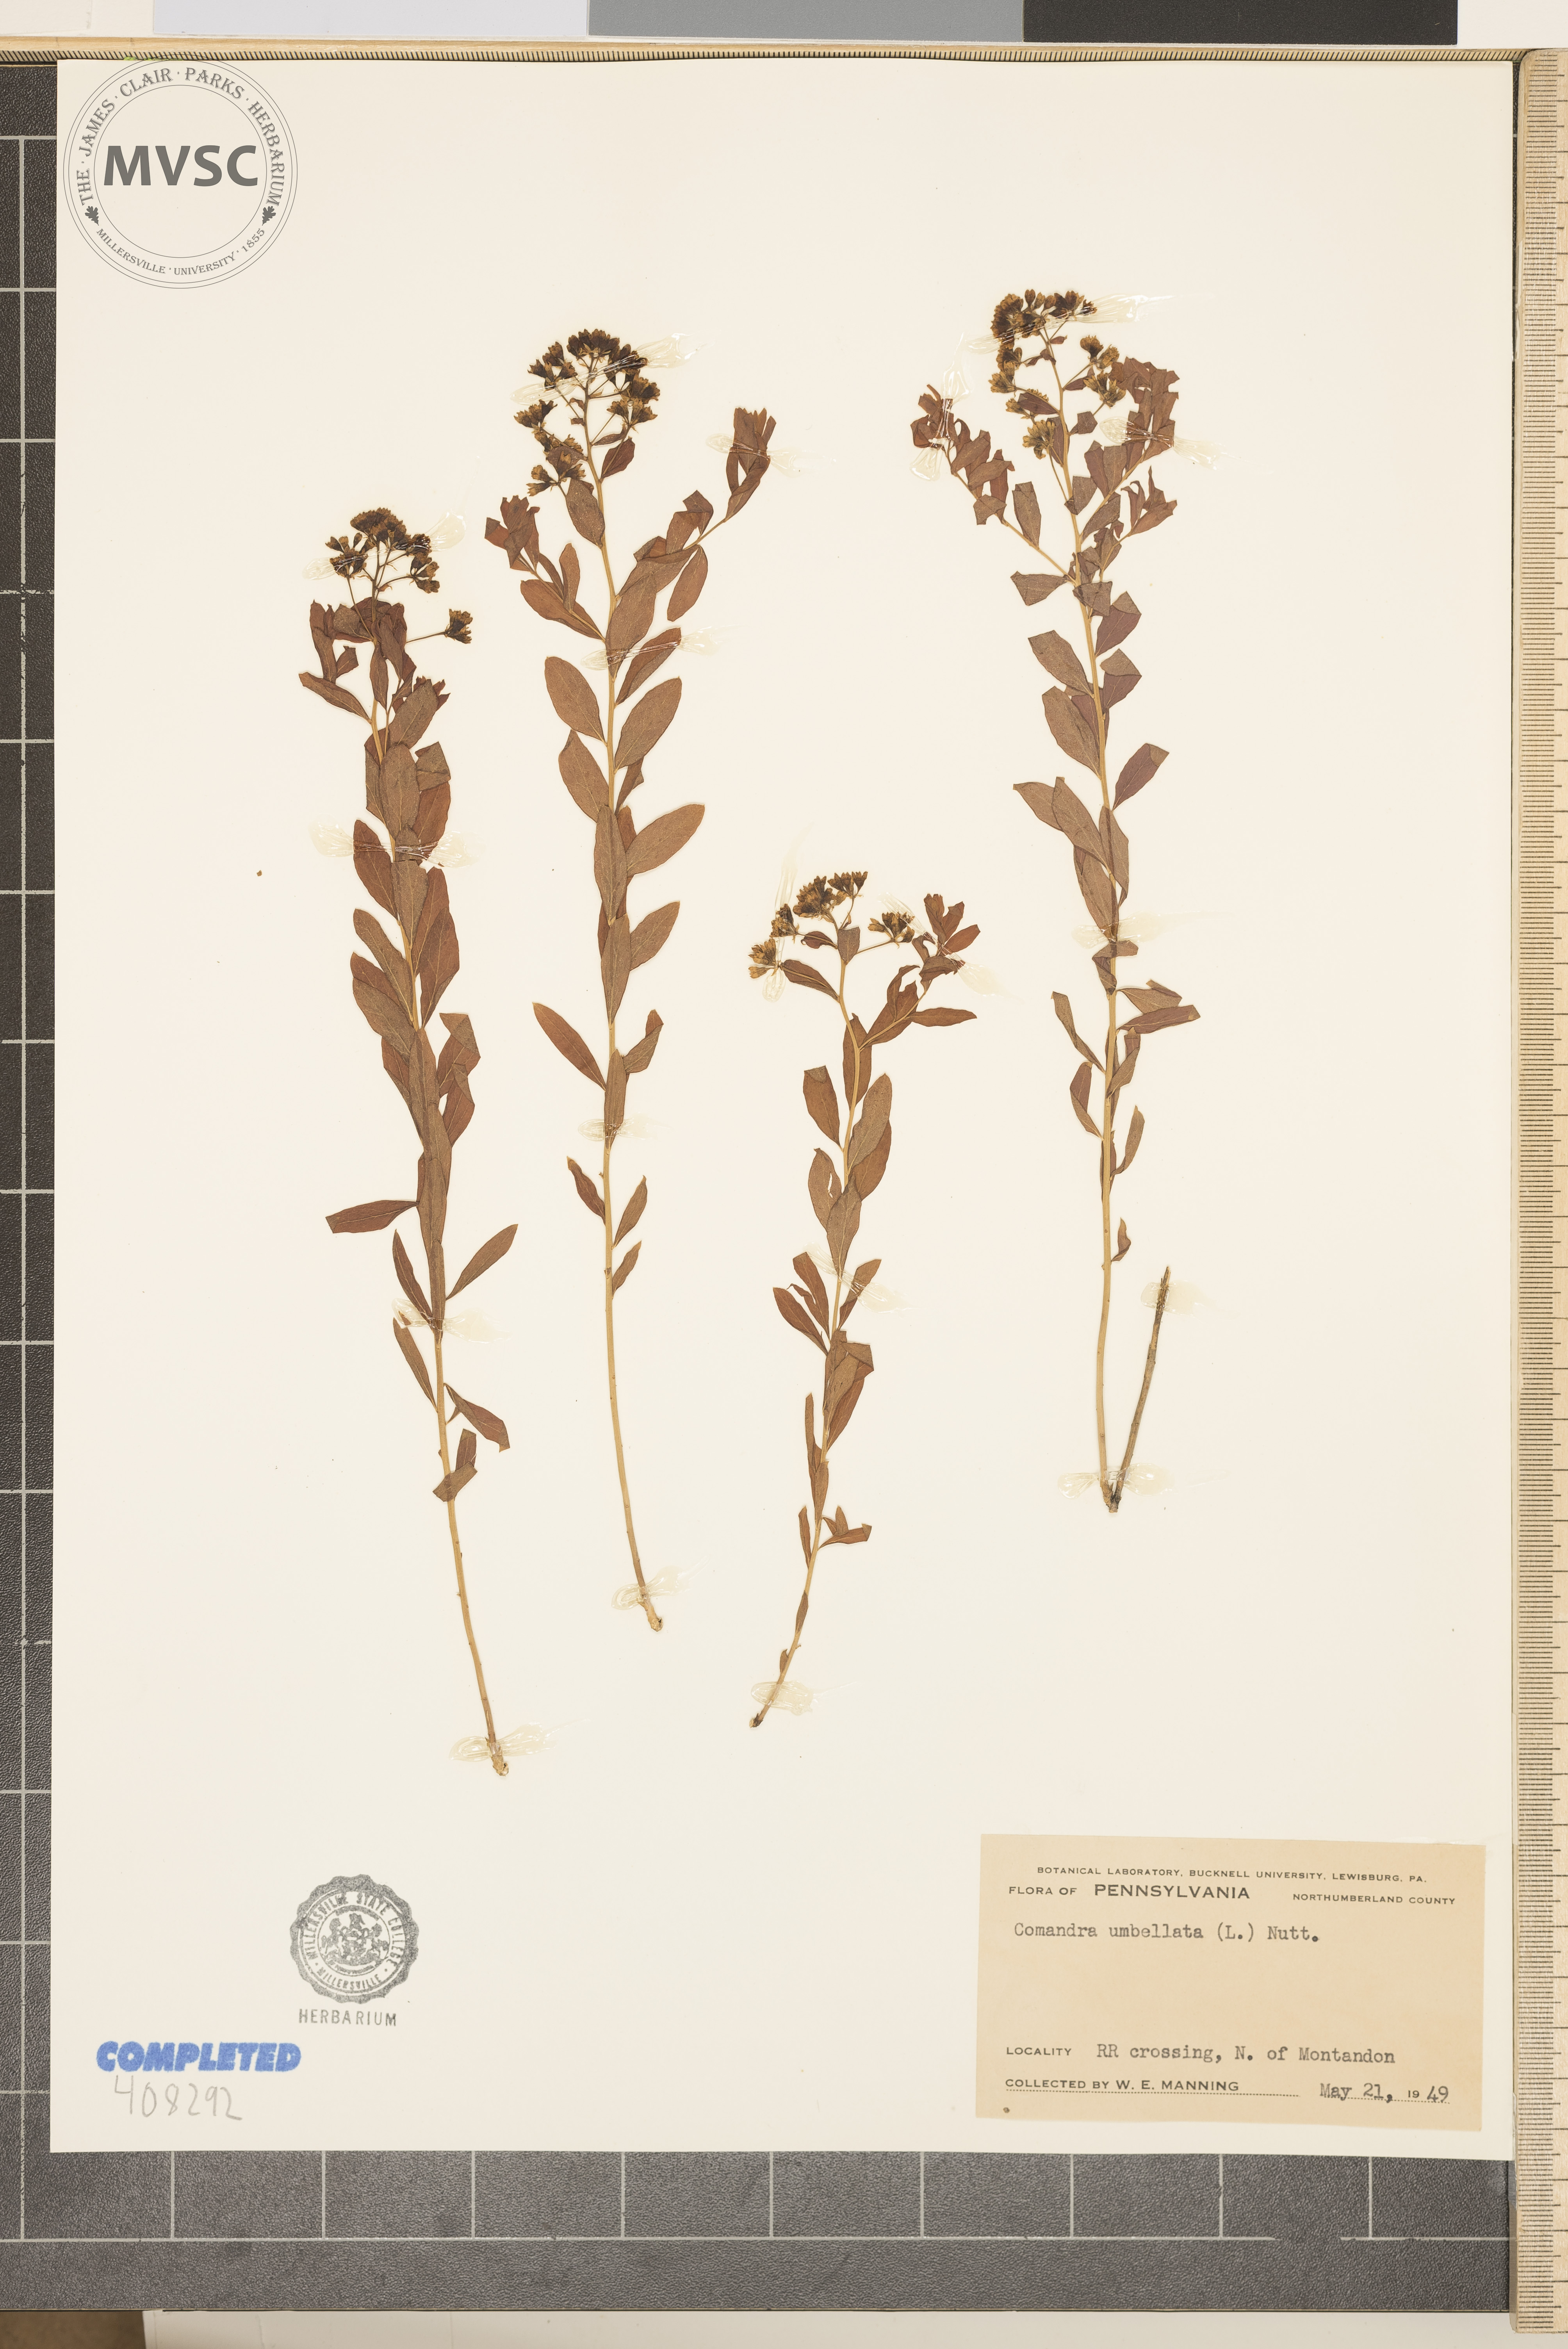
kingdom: Plantae
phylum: Tracheophyta
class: Magnoliopsida
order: Santalales
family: Comandraceae
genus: Comandra
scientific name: Comandra umbellata
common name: Bastard toadflax
